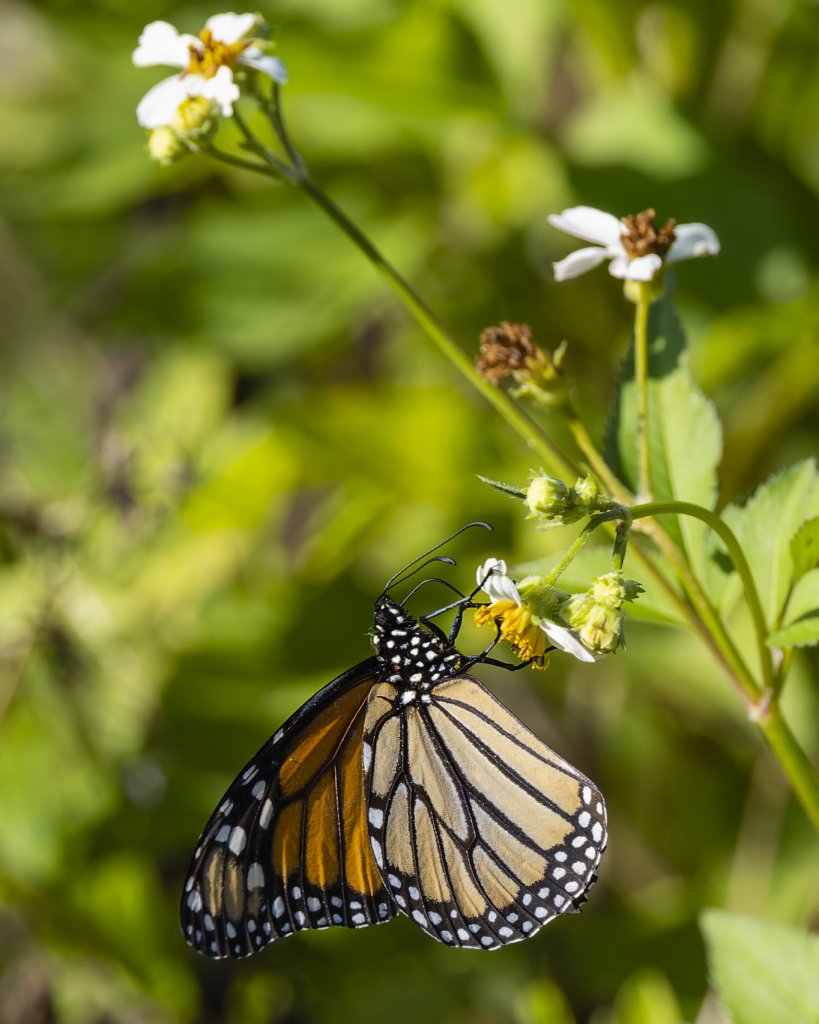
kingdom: Animalia
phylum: Arthropoda
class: Insecta
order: Lepidoptera
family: Nymphalidae
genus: Danaus
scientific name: Danaus plexippus
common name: Monarch
